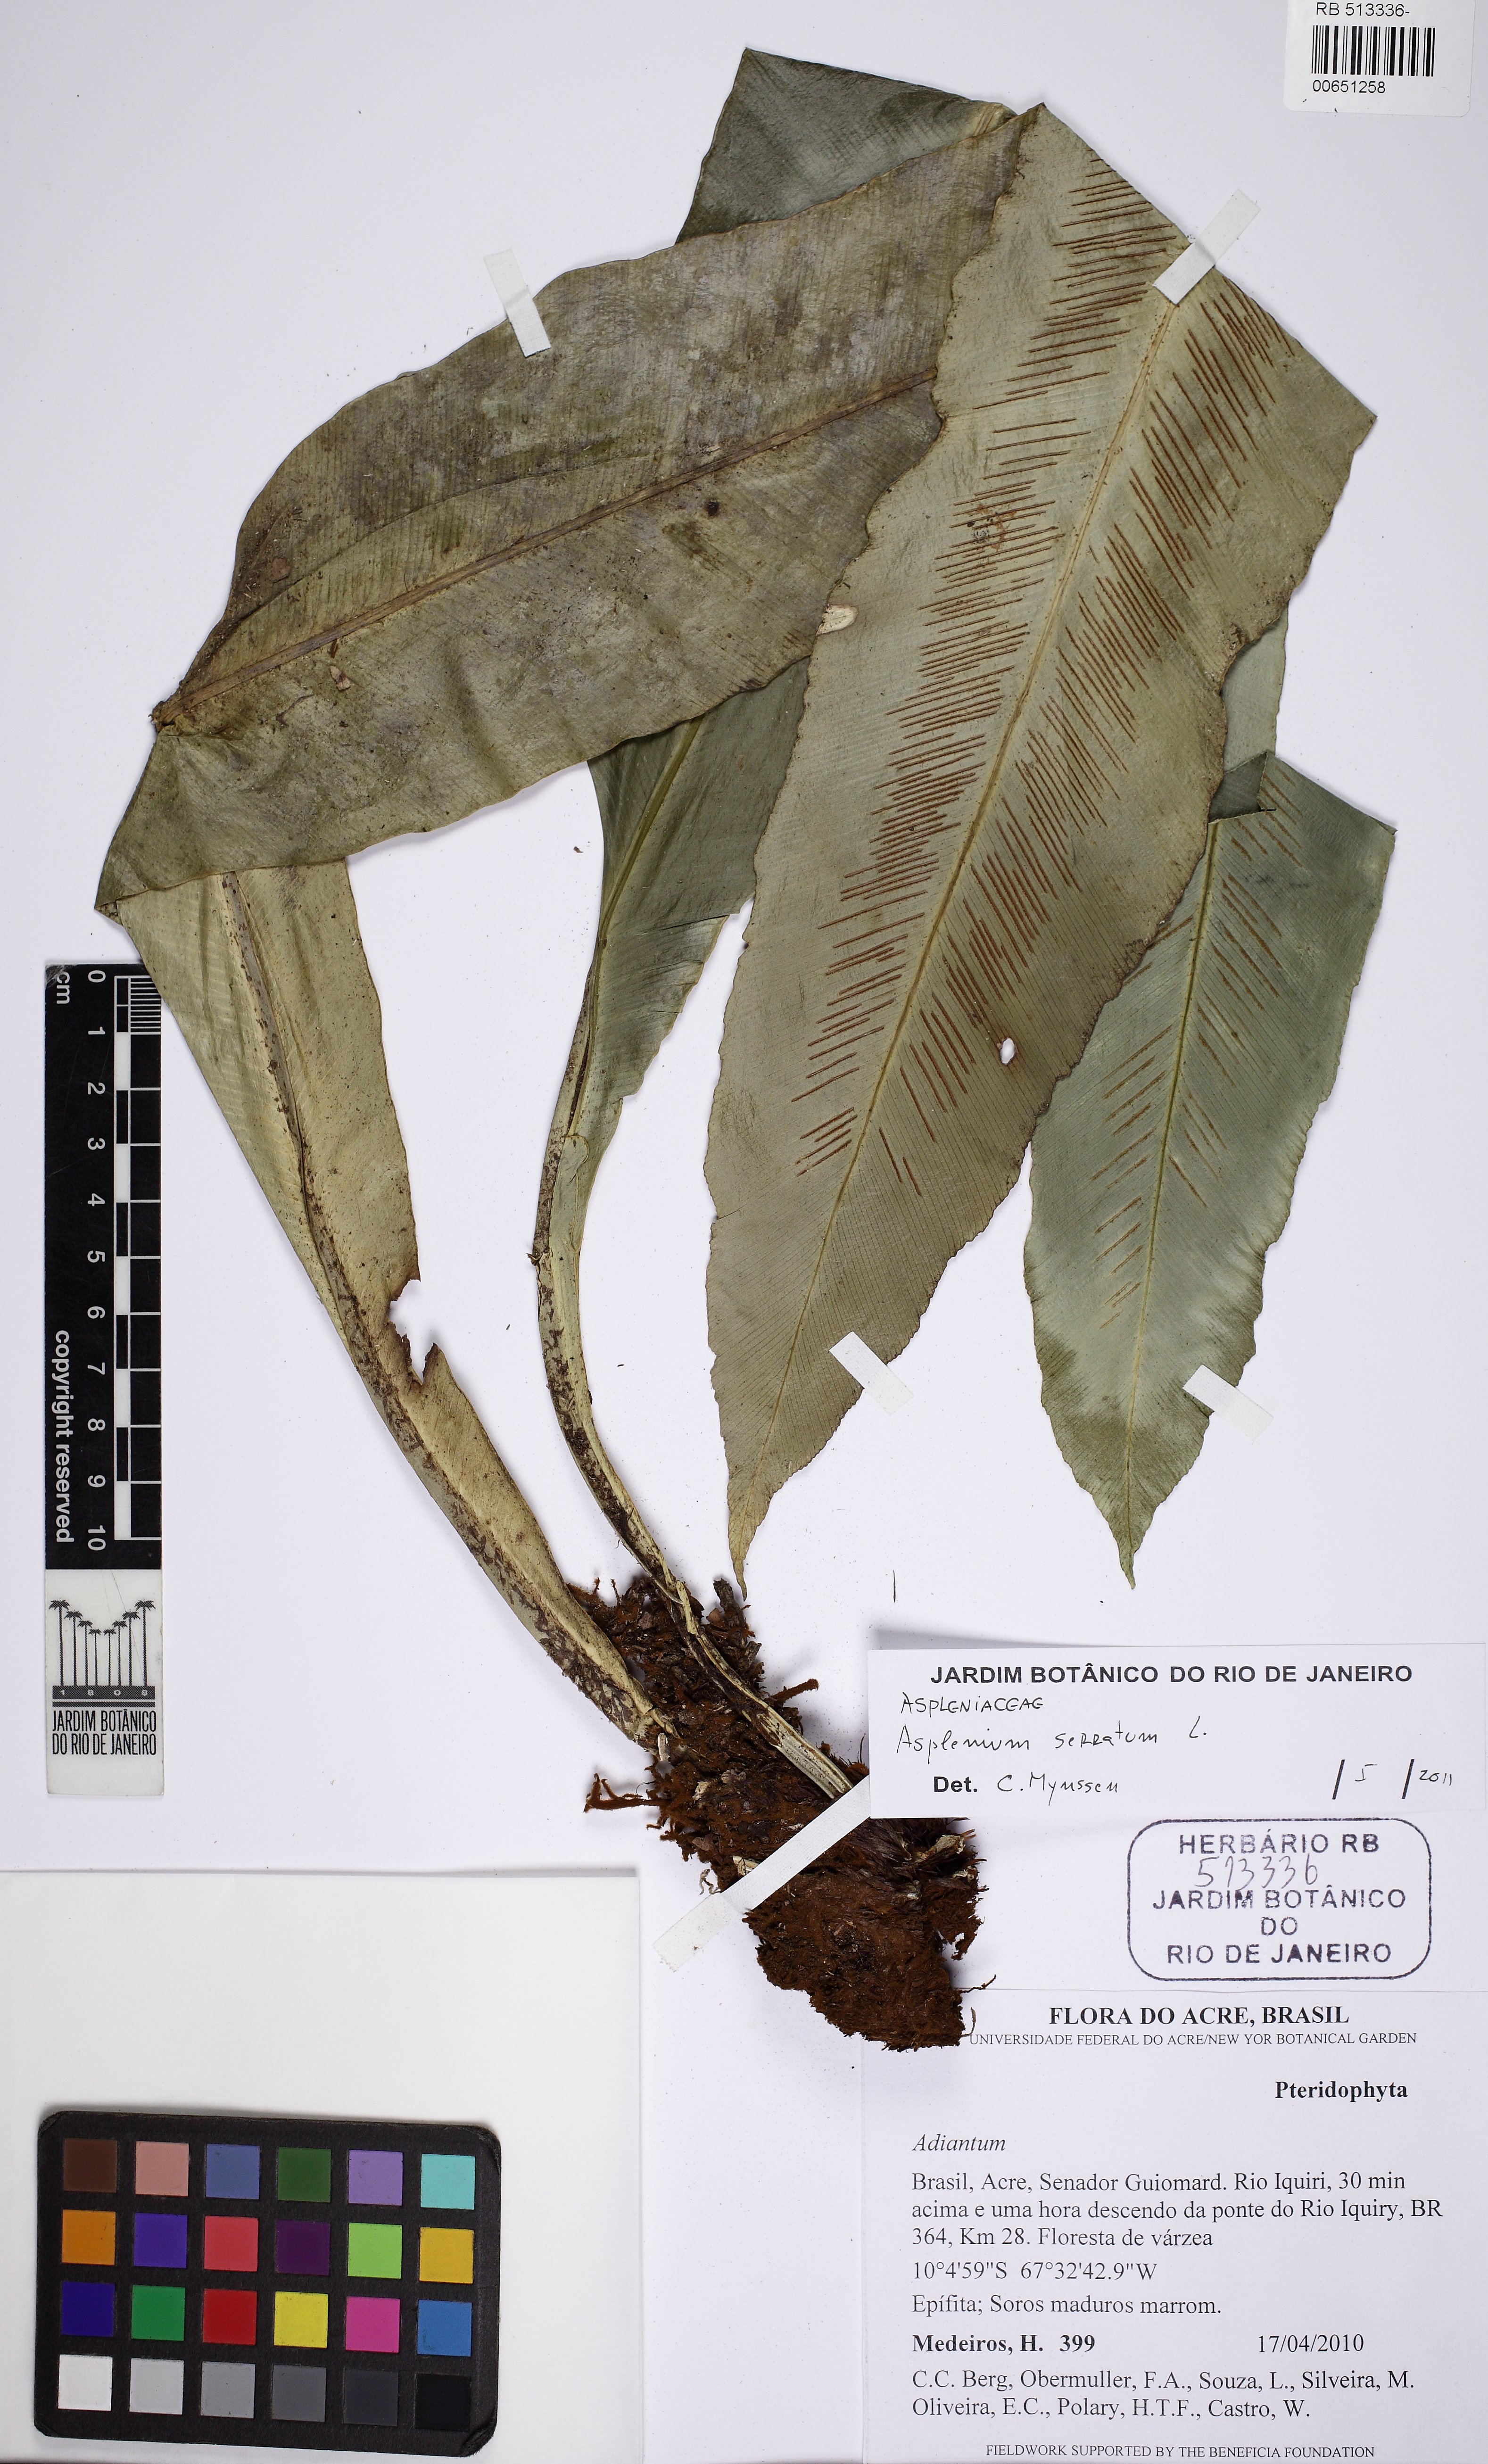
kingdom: Plantae
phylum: Tracheophyta
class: Polypodiopsida
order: Polypodiales
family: Aspleniaceae
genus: Asplenium
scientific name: Asplenium serratum
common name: Wild birdnest fern
